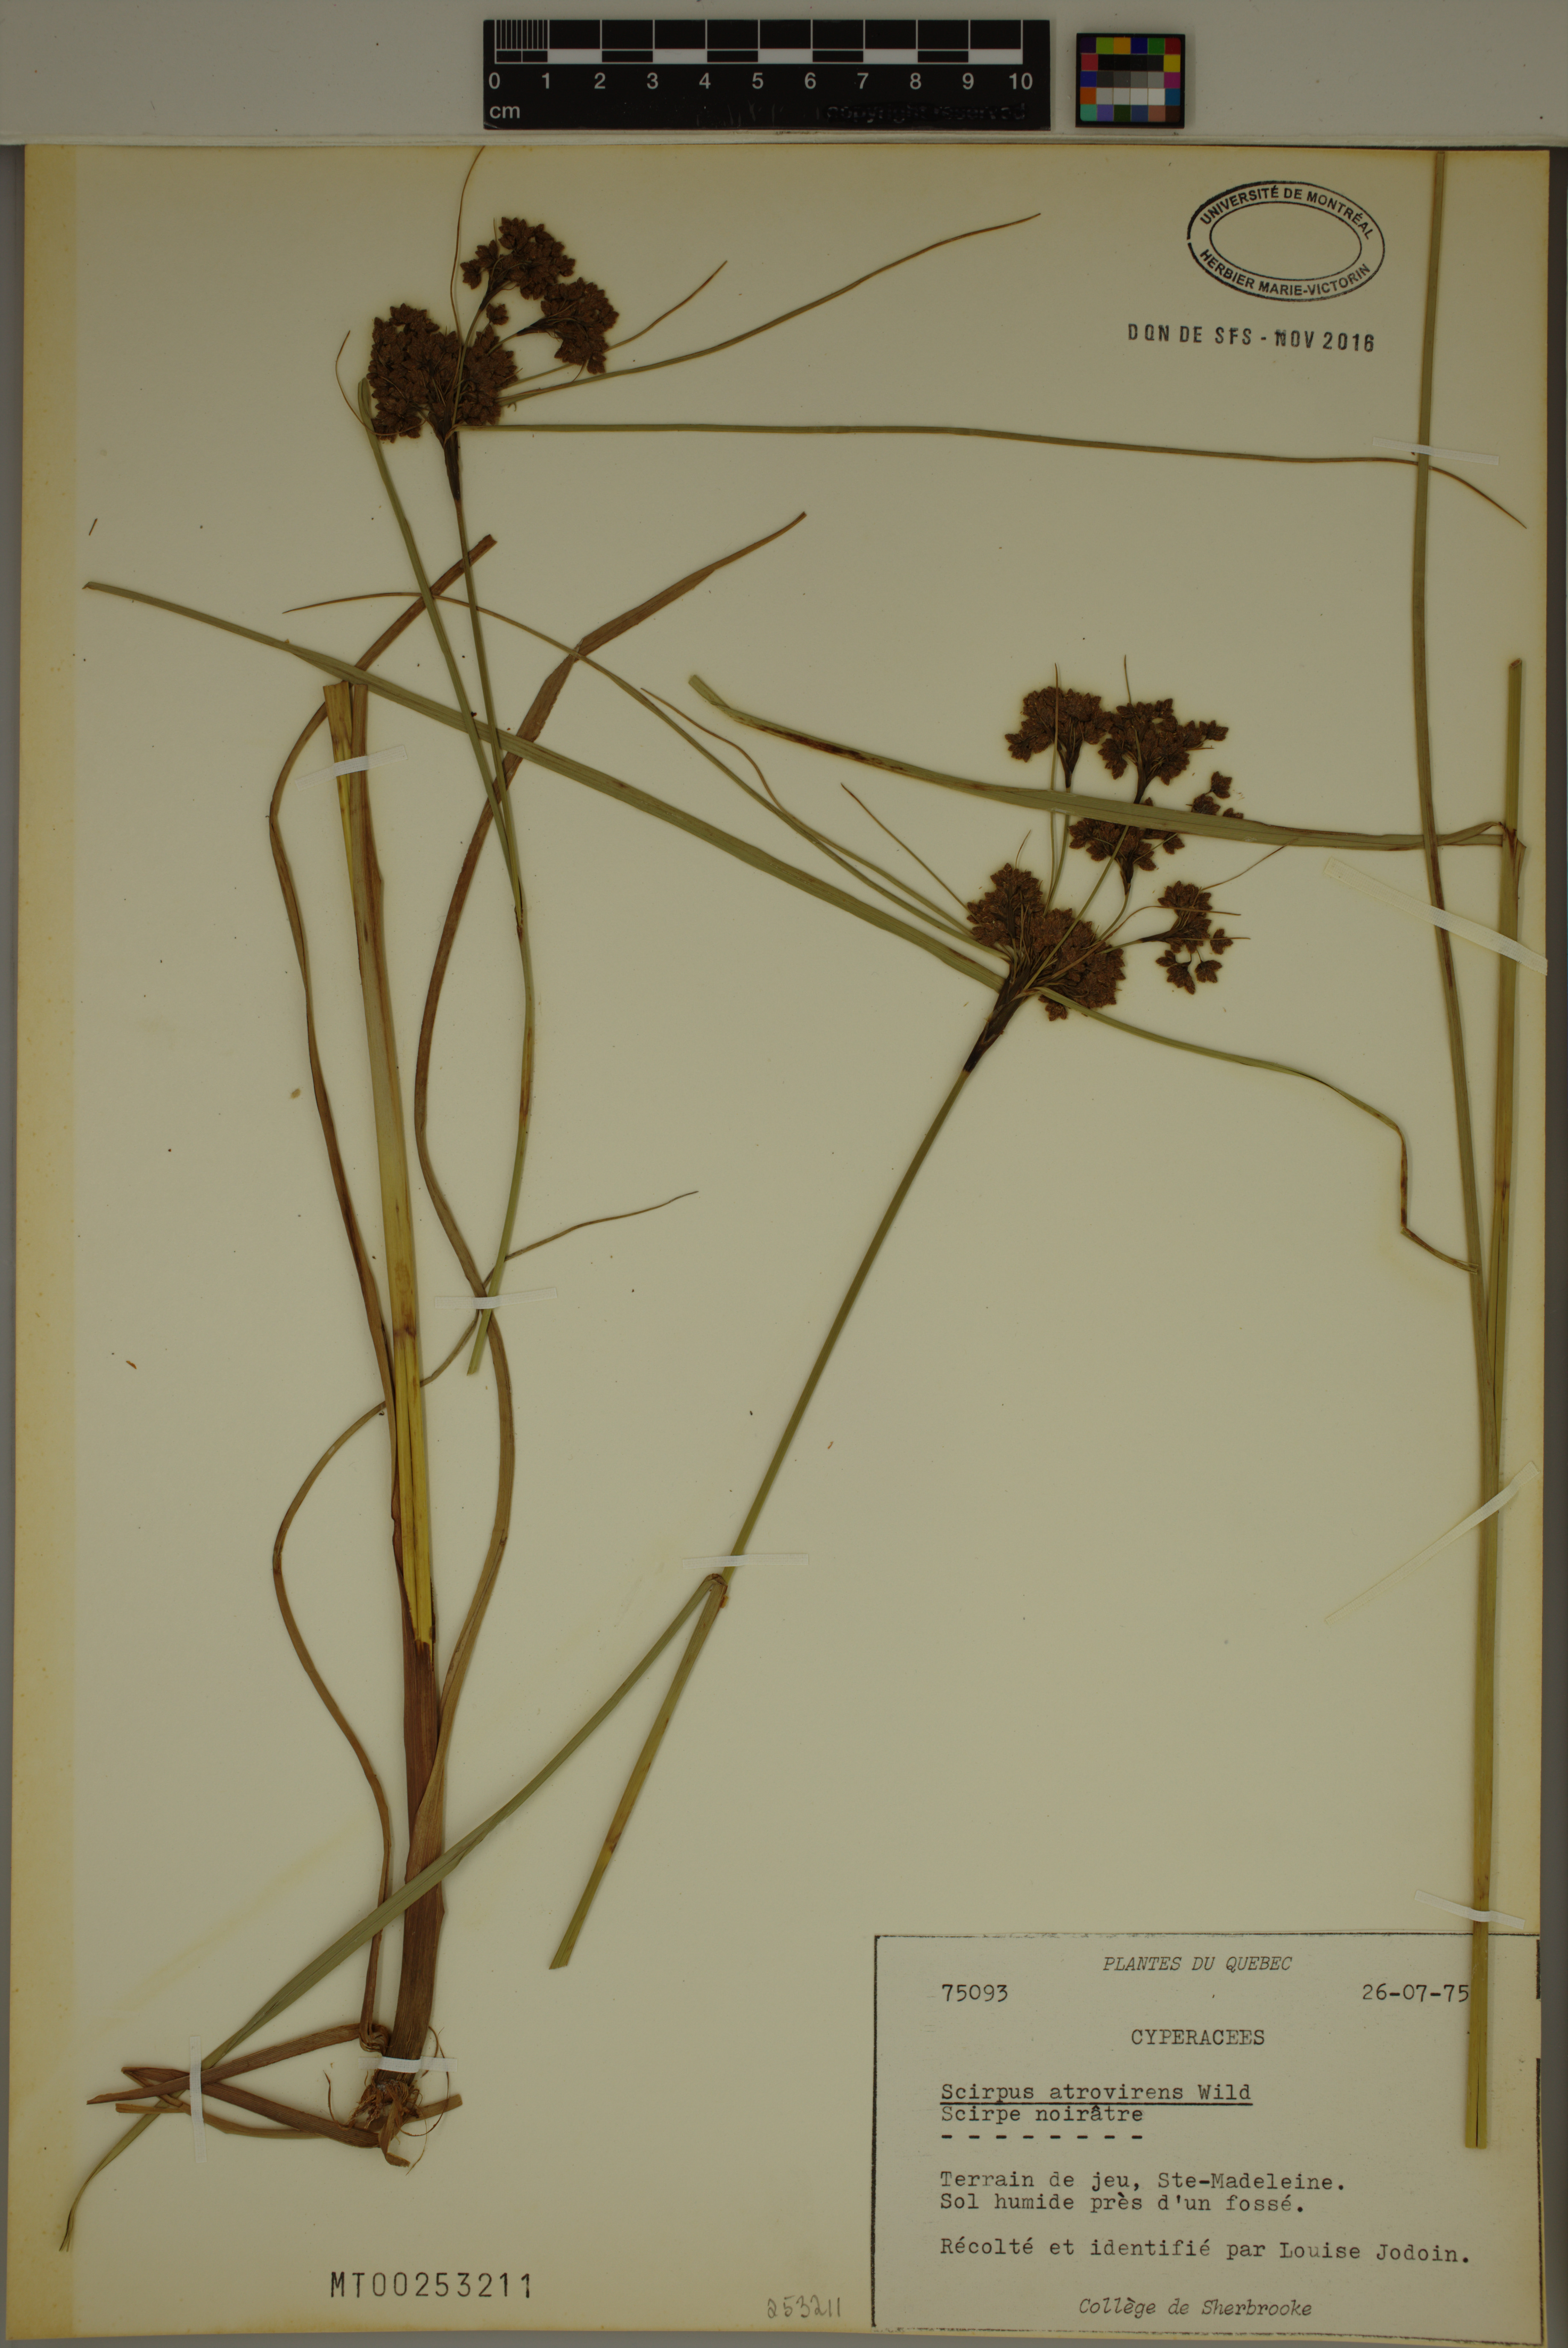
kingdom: Plantae
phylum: Tracheophyta
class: Liliopsida
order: Poales
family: Cyperaceae
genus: Scirpus
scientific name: Scirpus atrovirens
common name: Black bulrush
